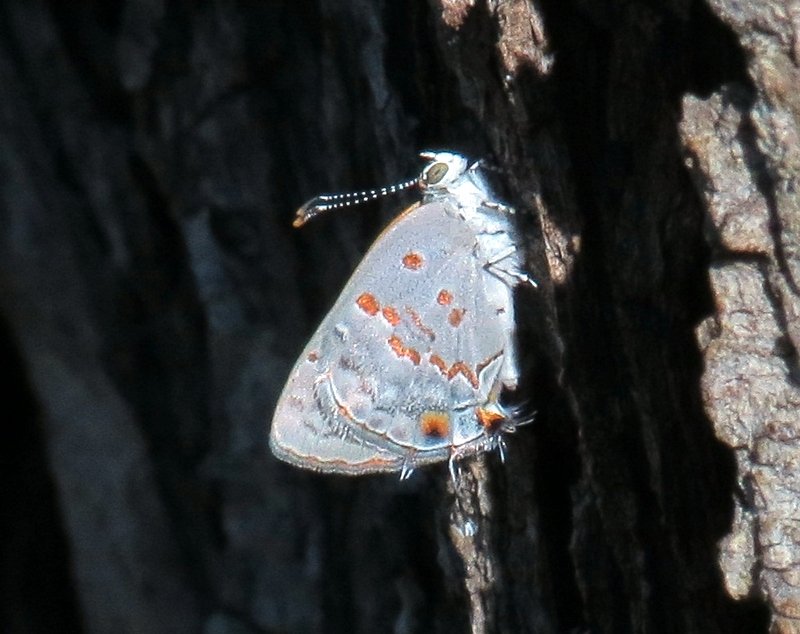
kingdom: Animalia
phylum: Arthropoda
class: Insecta
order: Lepidoptera
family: Lycaenidae
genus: Ministrymon
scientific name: Ministrymon clytie
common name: Clytie Ministreak
